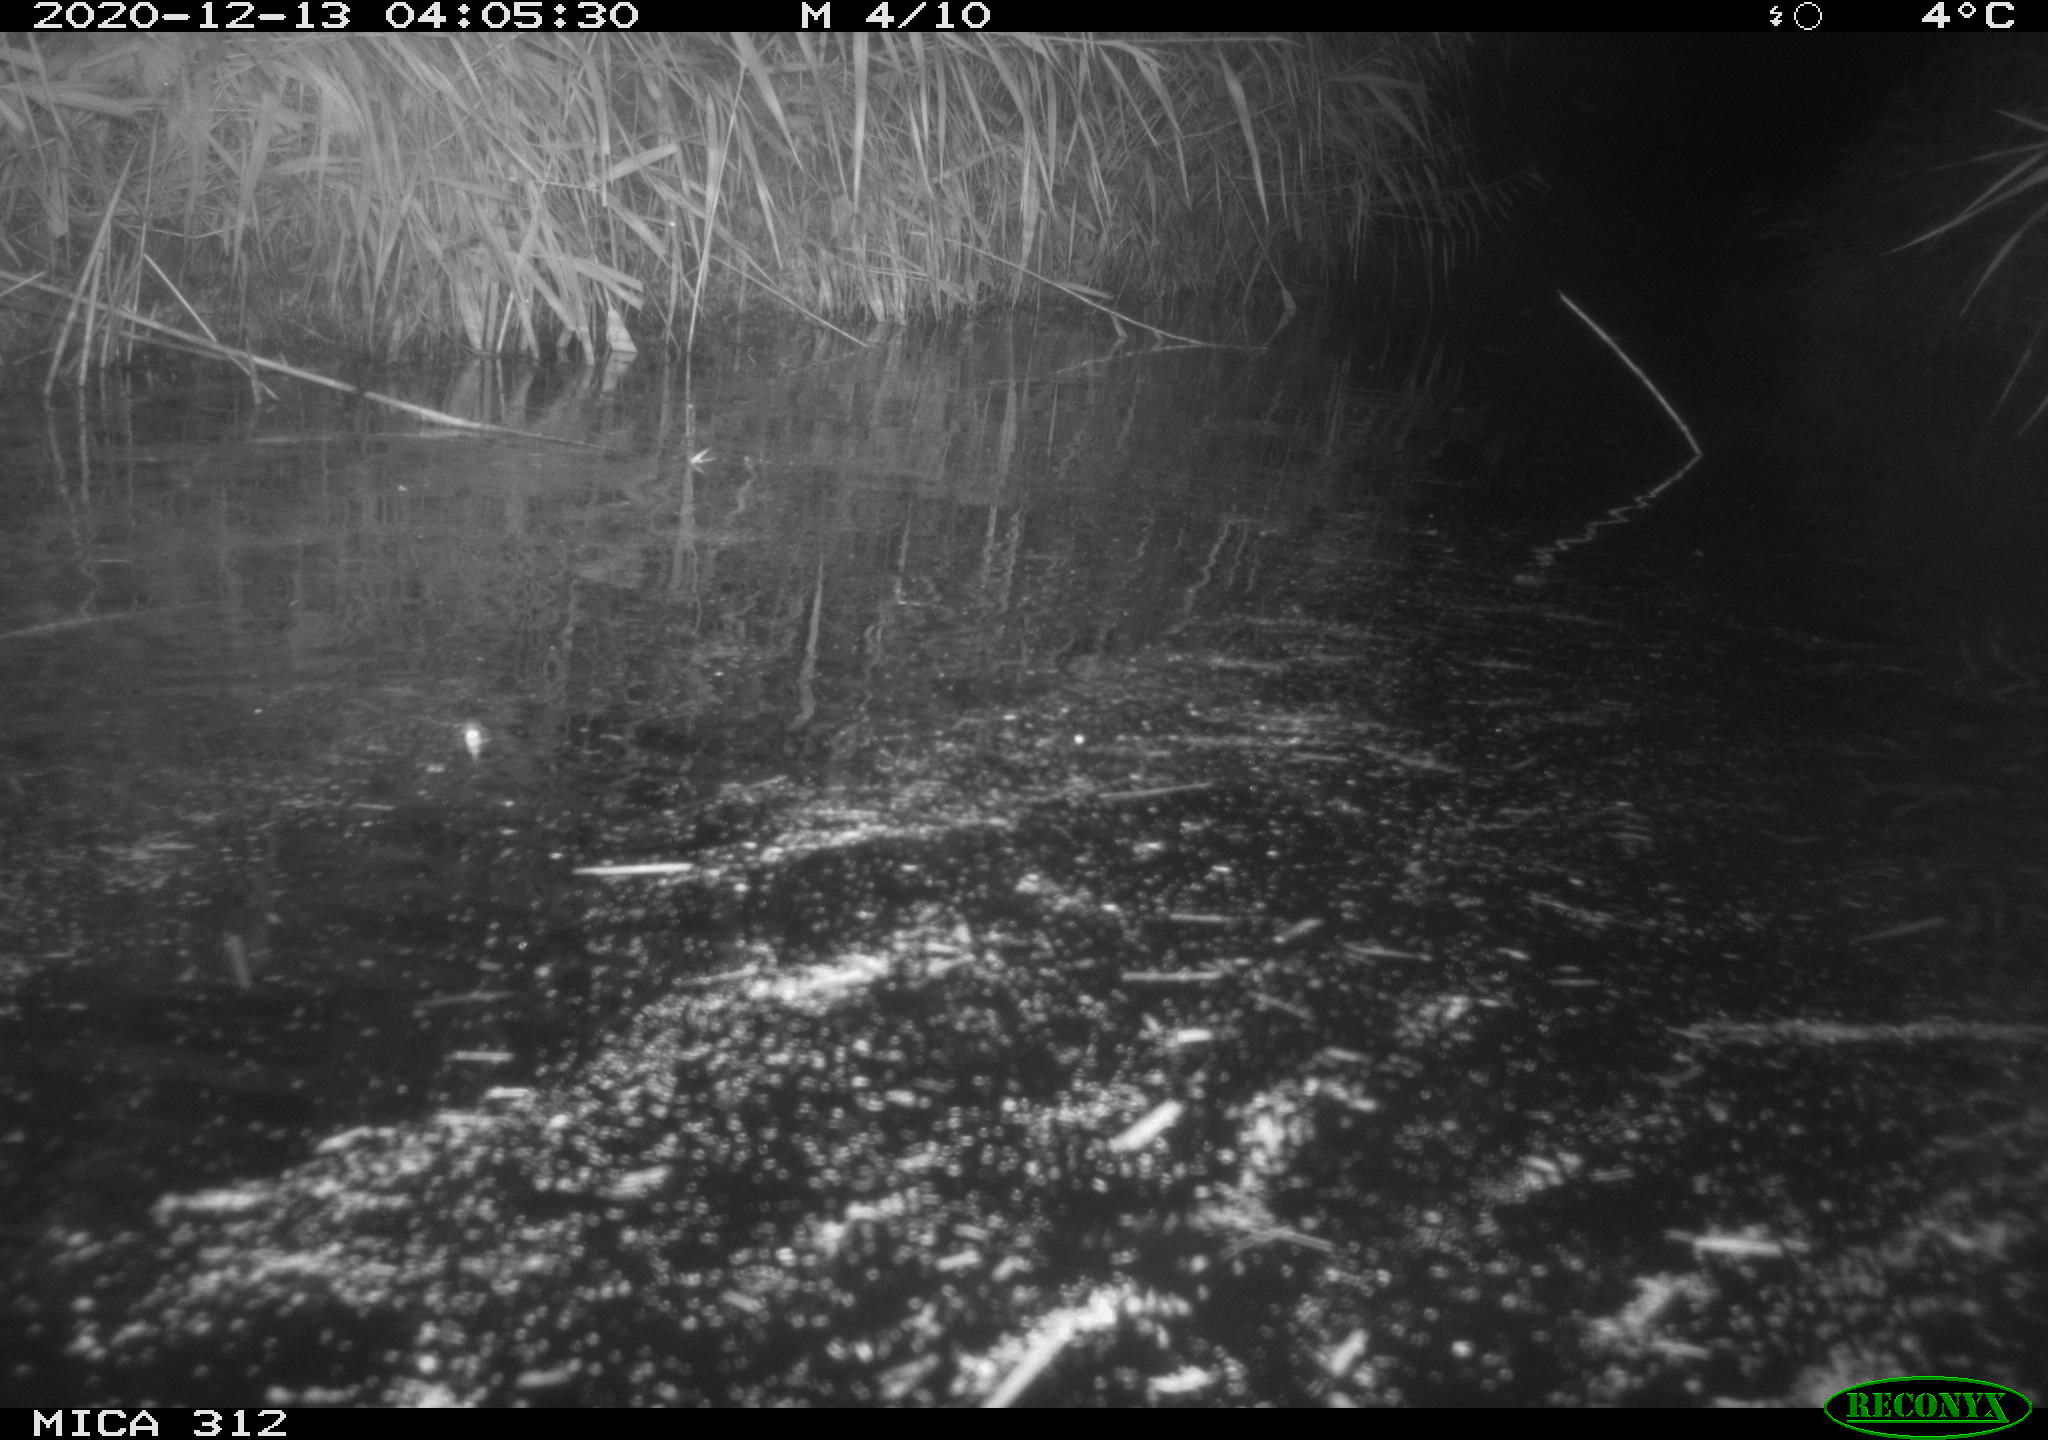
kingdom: Animalia
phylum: Chordata
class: Mammalia
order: Rodentia
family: Muridae
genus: Rattus
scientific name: Rattus norvegicus
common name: Brown rat
